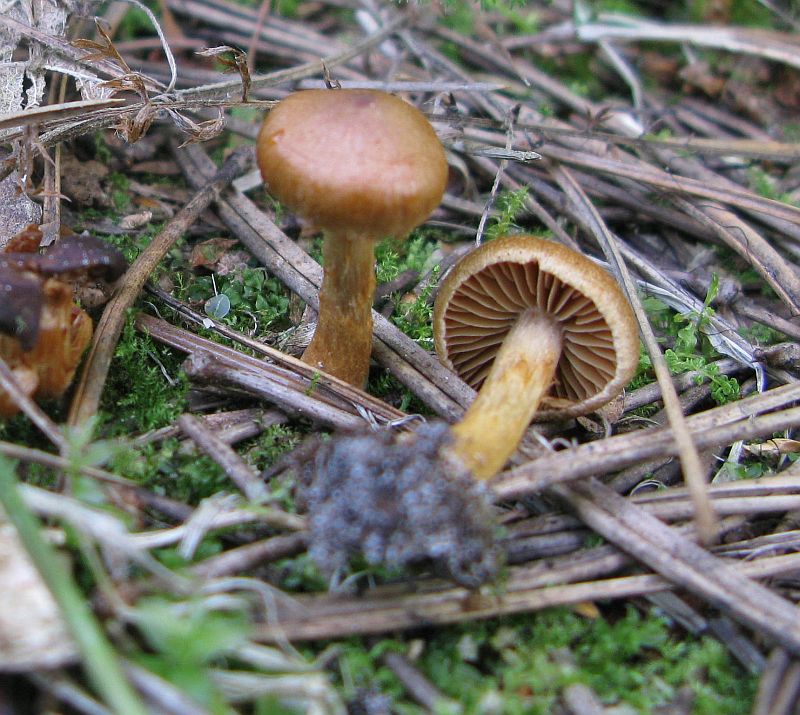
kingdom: Fungi
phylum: Basidiomycota
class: Agaricomycetes
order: Agaricales
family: Cortinariaceae
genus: Cortinarius
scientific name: Cortinarius saniosus
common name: gultrævlet slørhat
